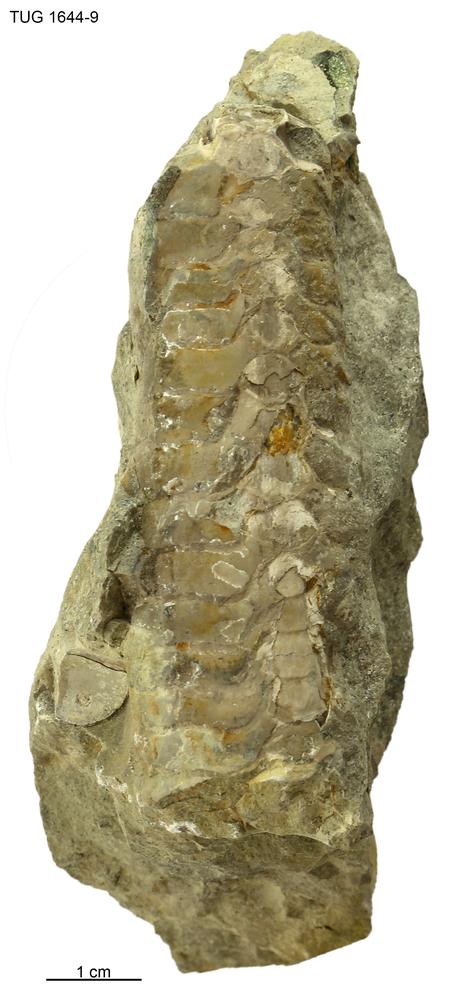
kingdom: Animalia
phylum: Mollusca
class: Cephalopoda
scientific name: Cephalopoda
